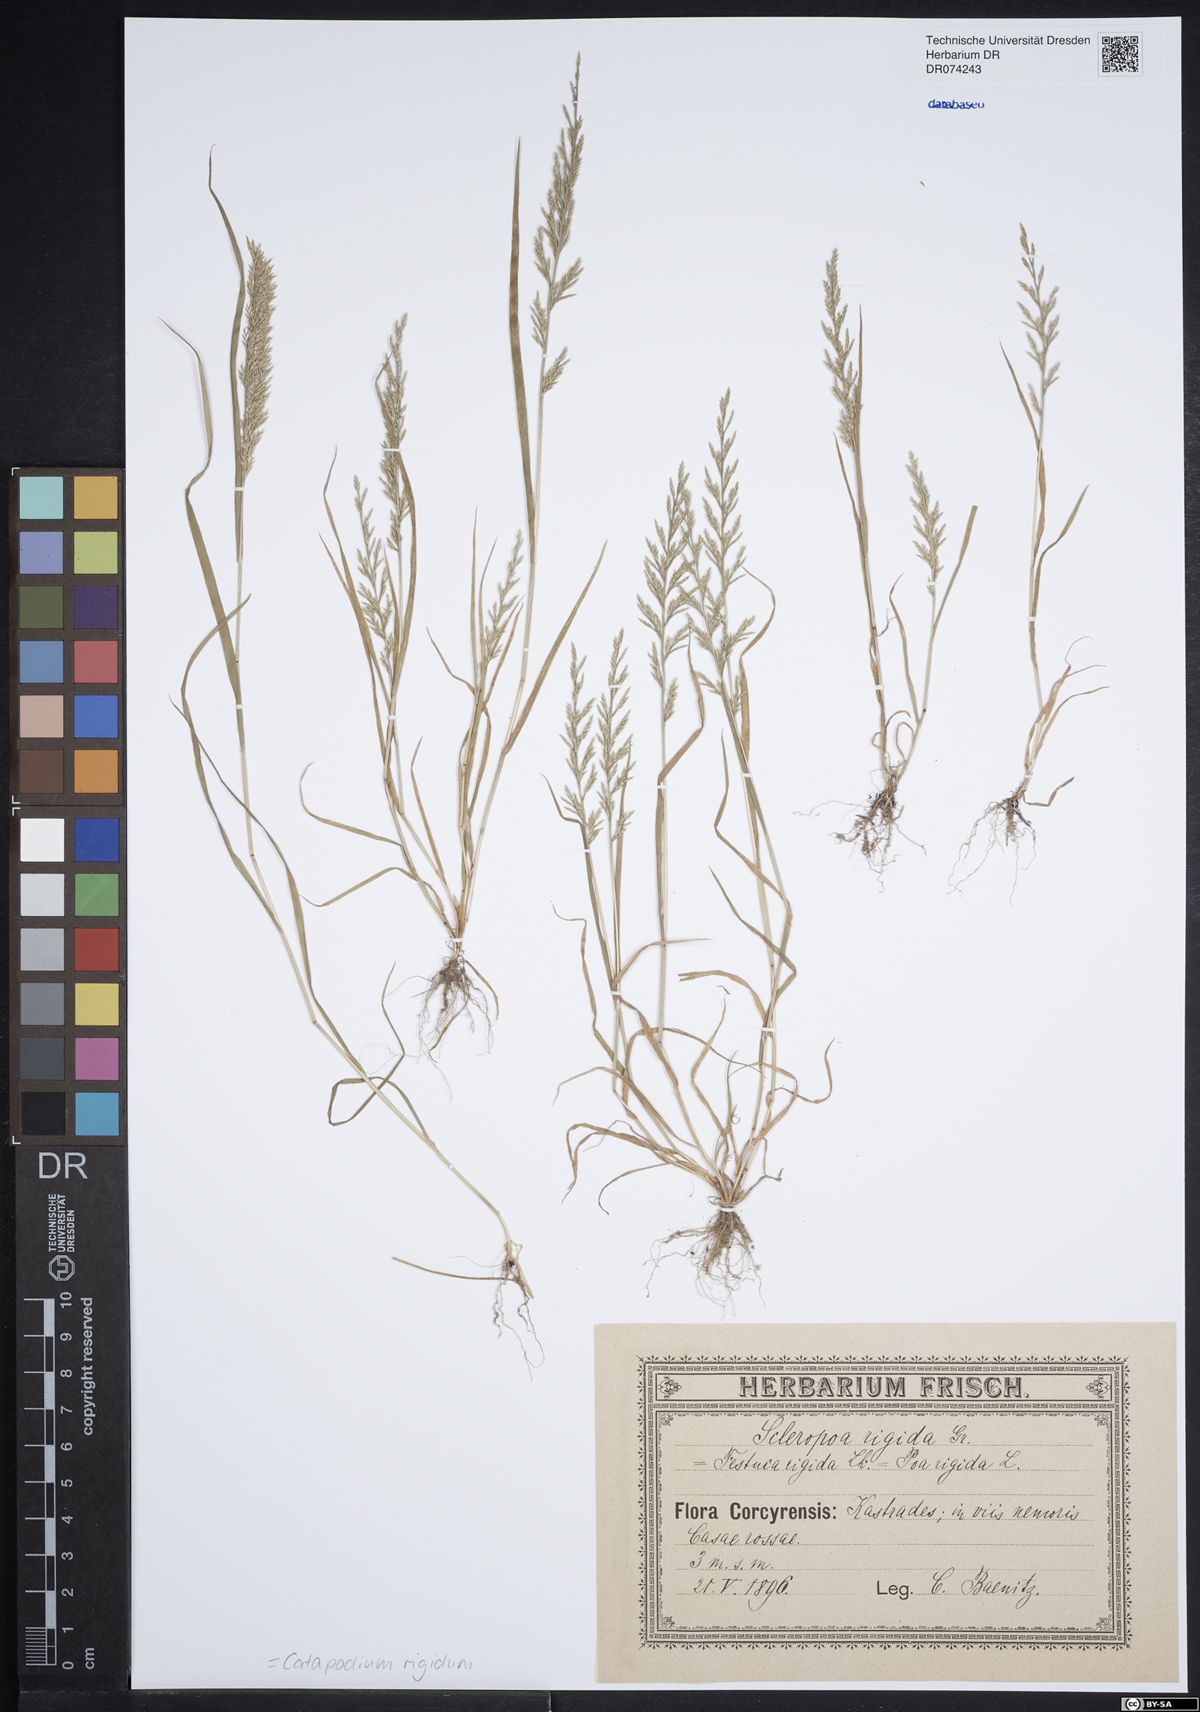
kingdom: Plantae
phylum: Tracheophyta
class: Liliopsida
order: Poales
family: Poaceae
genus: Catapodium
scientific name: Catapodium rigidum
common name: Fern-grass
